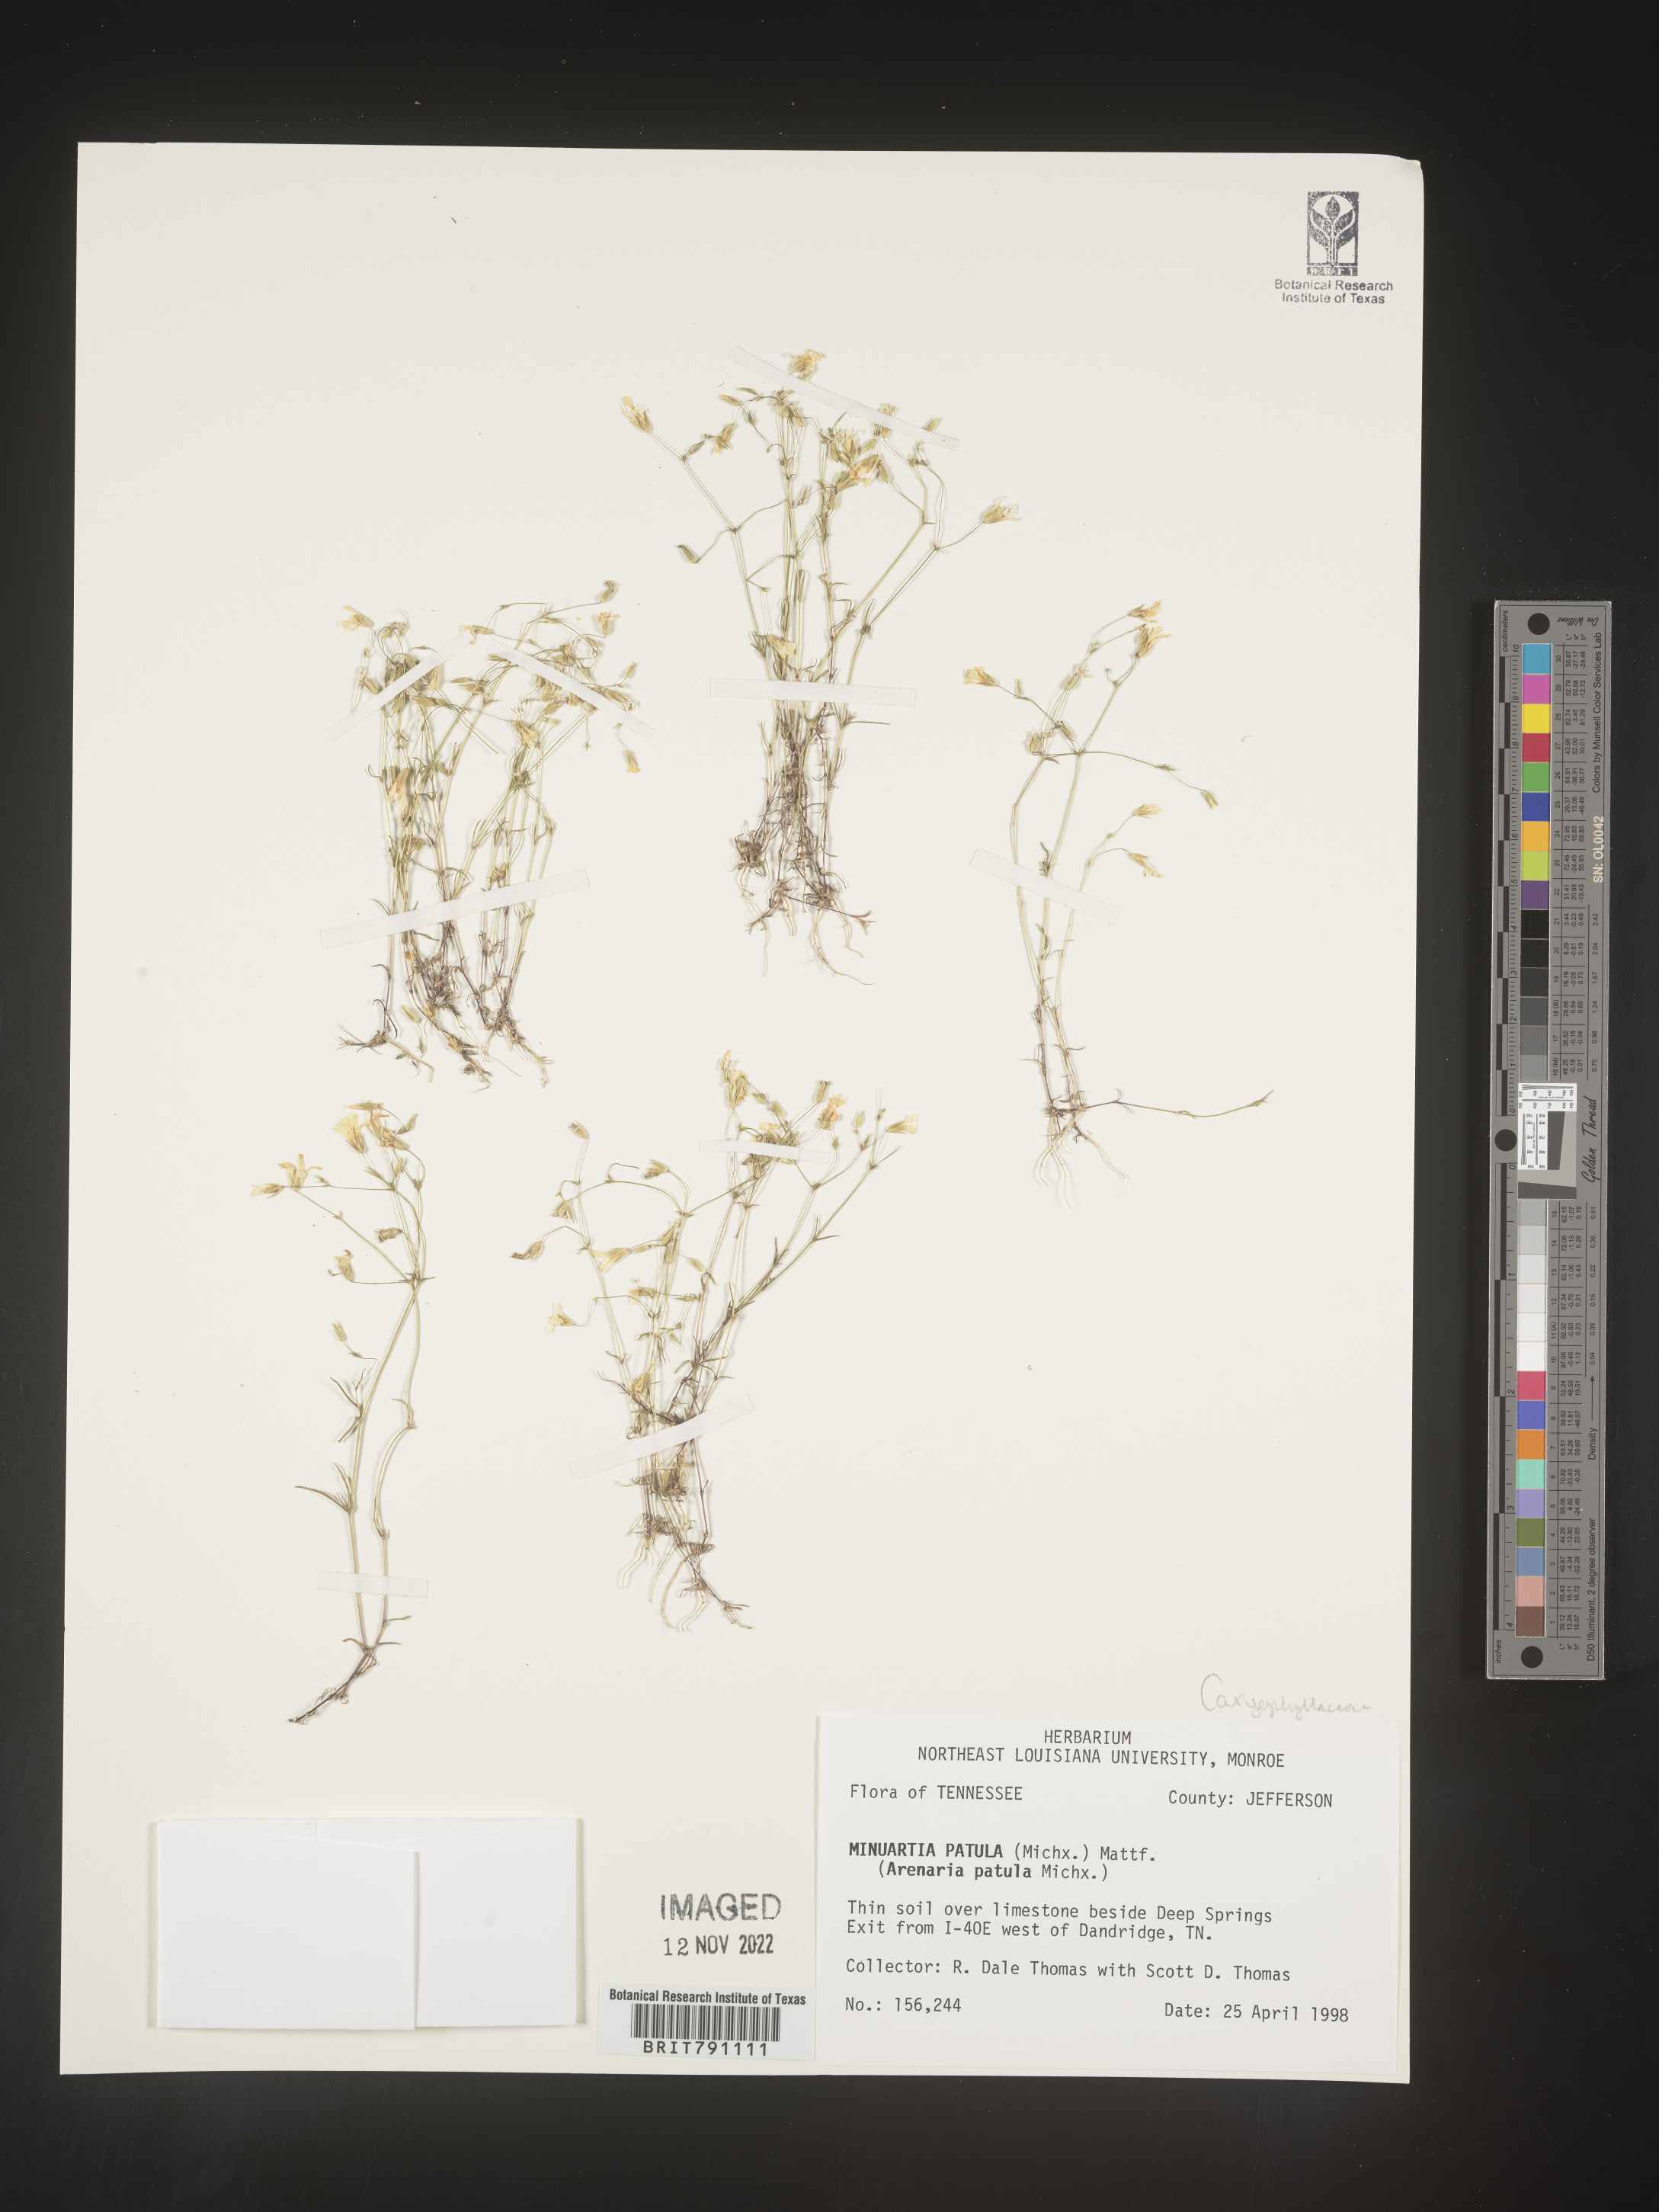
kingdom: Plantae
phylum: Tracheophyta
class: Magnoliopsida
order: Caryophyllales
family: Caryophyllaceae
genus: Mononeuria
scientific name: Mononeuria patula
